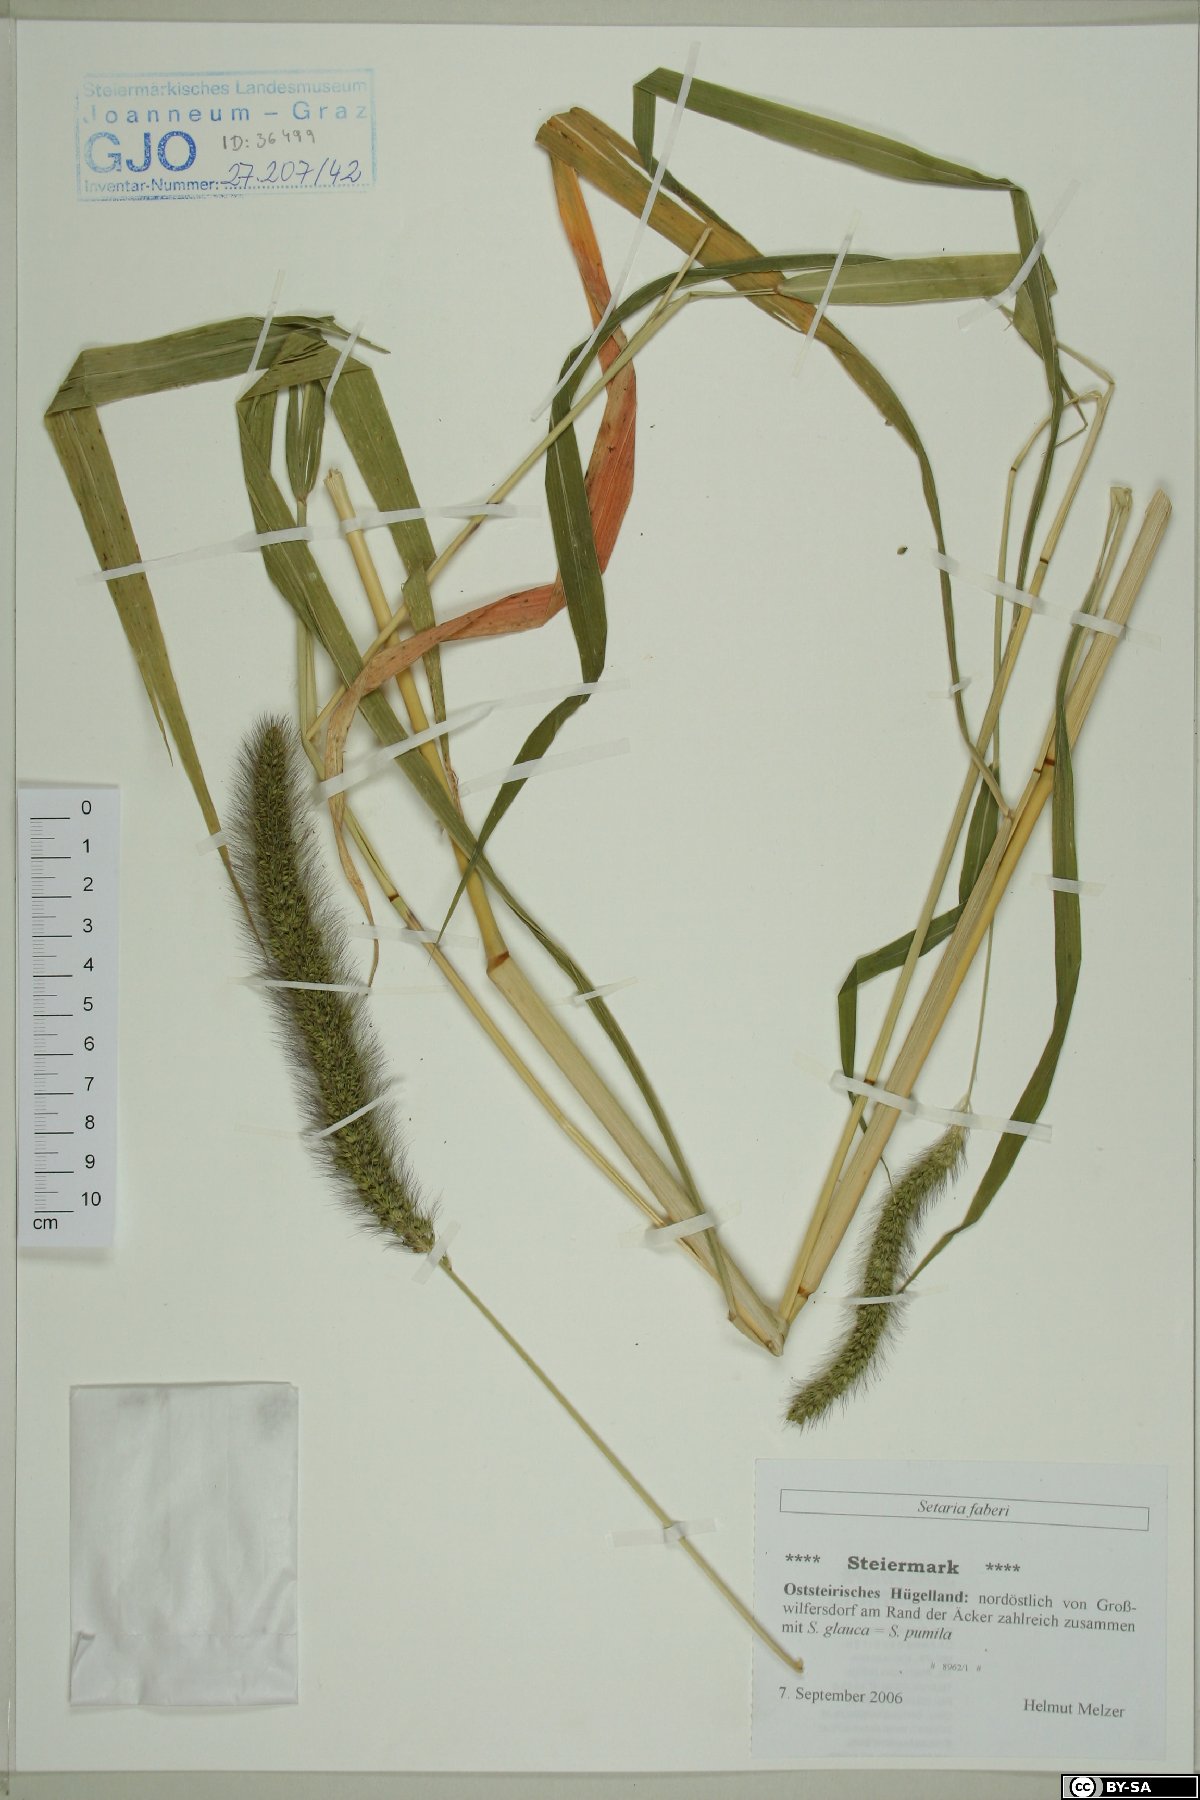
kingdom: Plantae
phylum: Tracheophyta
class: Liliopsida
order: Poales
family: Poaceae
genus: Setaria
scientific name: Setaria faberi
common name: Nodding bristle-grass
